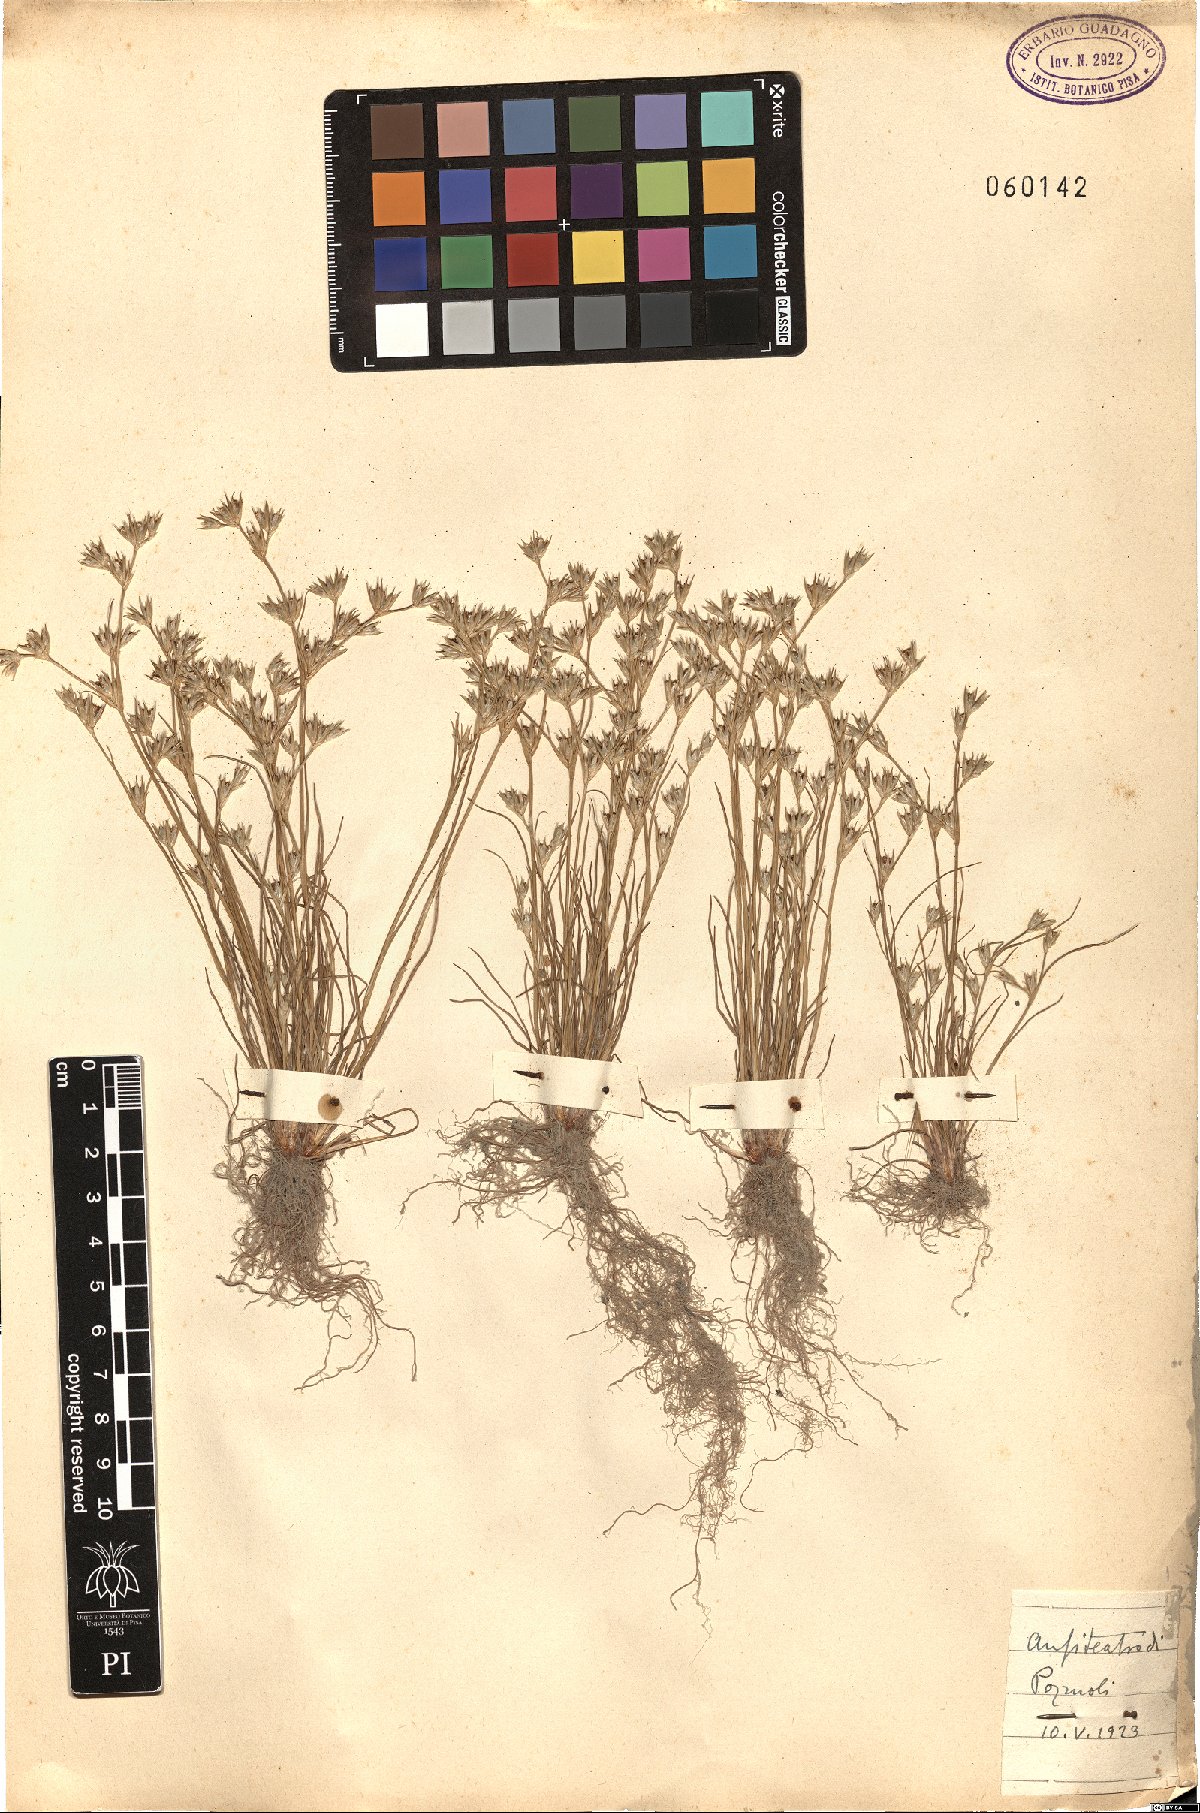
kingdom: Plantae
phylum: Tracheophyta
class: Liliopsida
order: Poales
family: Juncaceae
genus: Juncus
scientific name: Juncus
